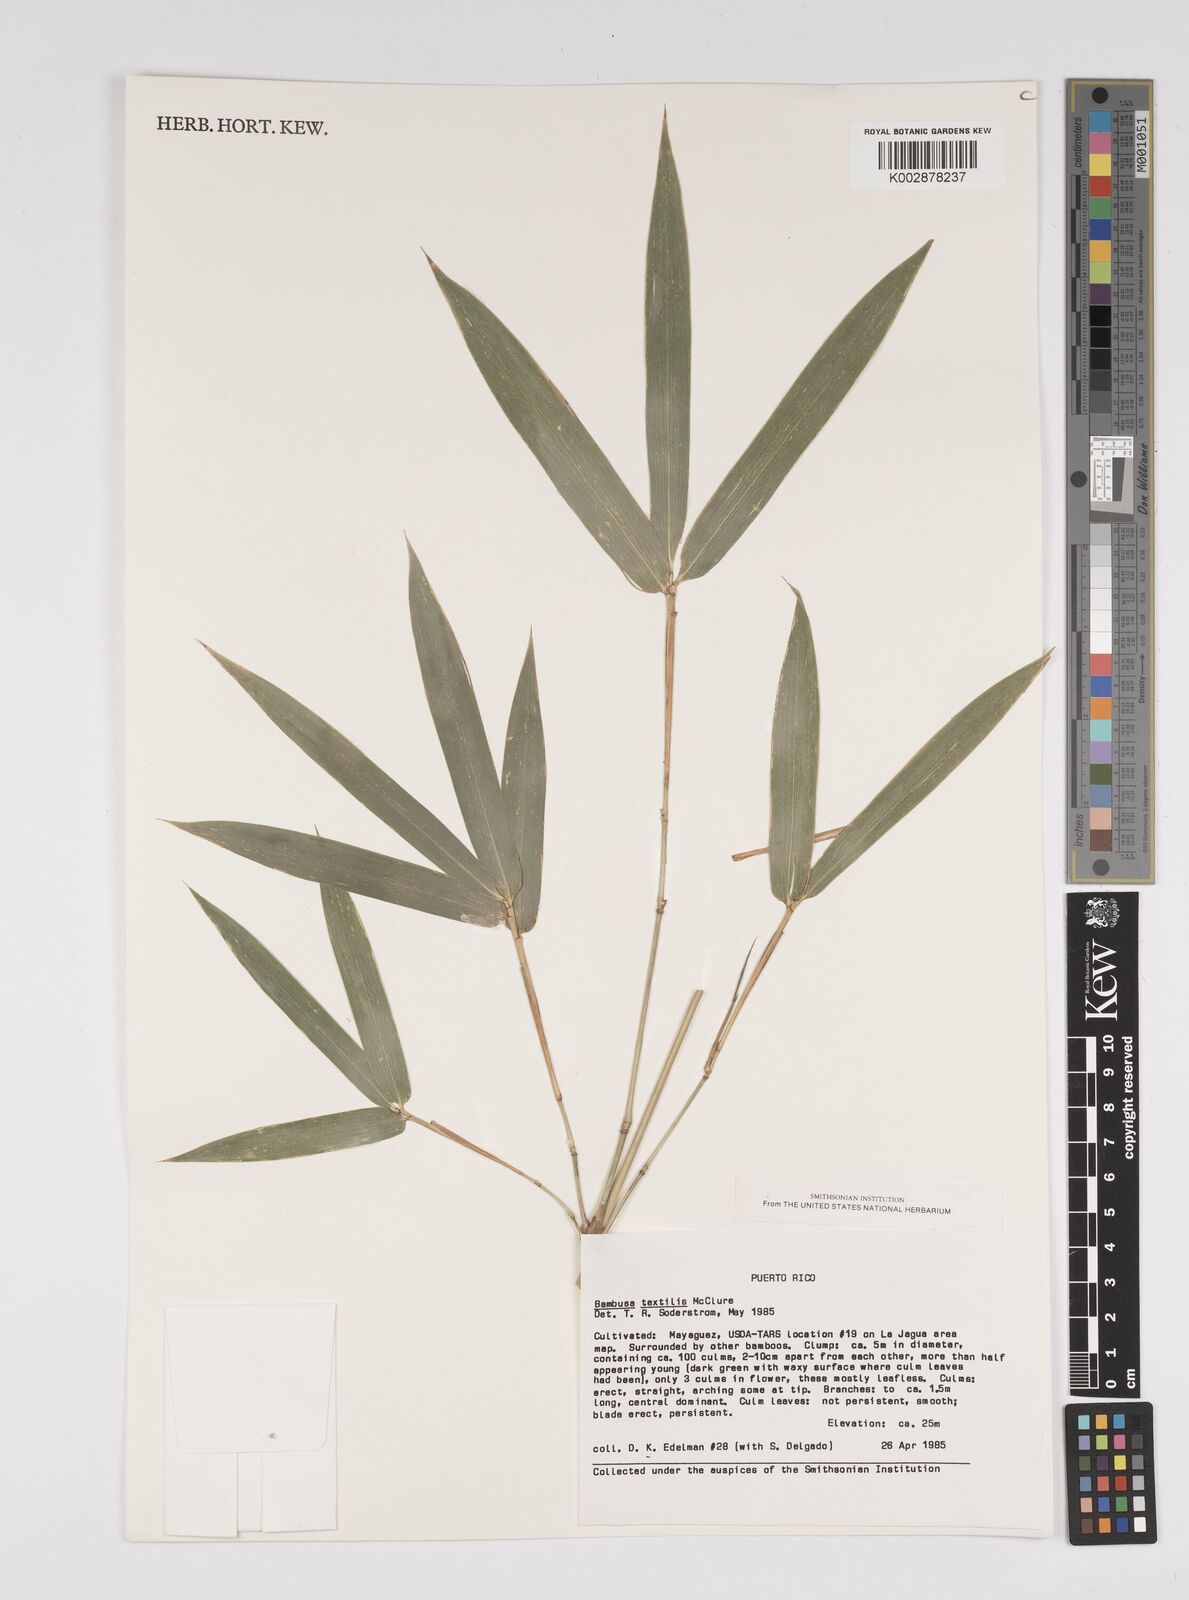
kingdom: Plantae
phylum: Tracheophyta
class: Liliopsida
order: Poales
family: Poaceae
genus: Bambusa
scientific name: Bambusa textilis
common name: Weaver's bamboo
